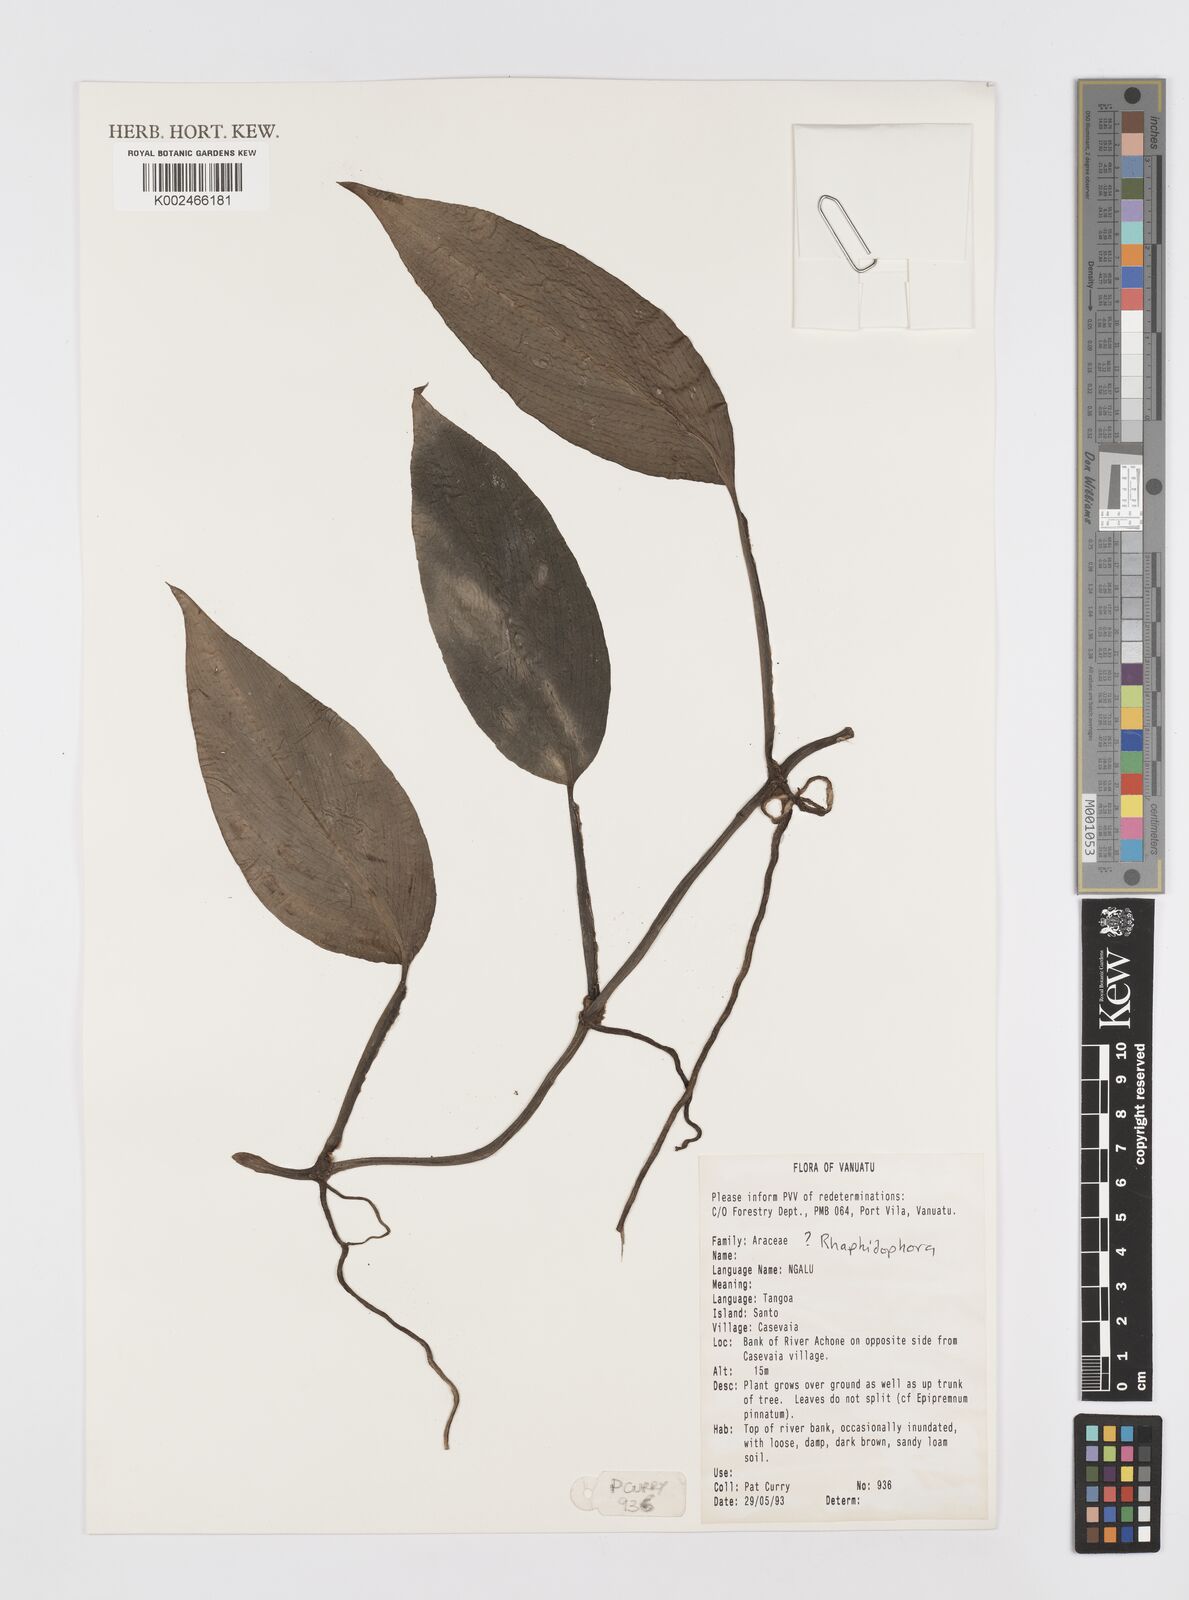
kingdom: Plantae
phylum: Tracheophyta
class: Liliopsida
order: Alismatales
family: Araceae
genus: Rhaphidophora
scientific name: Rhaphidophora
